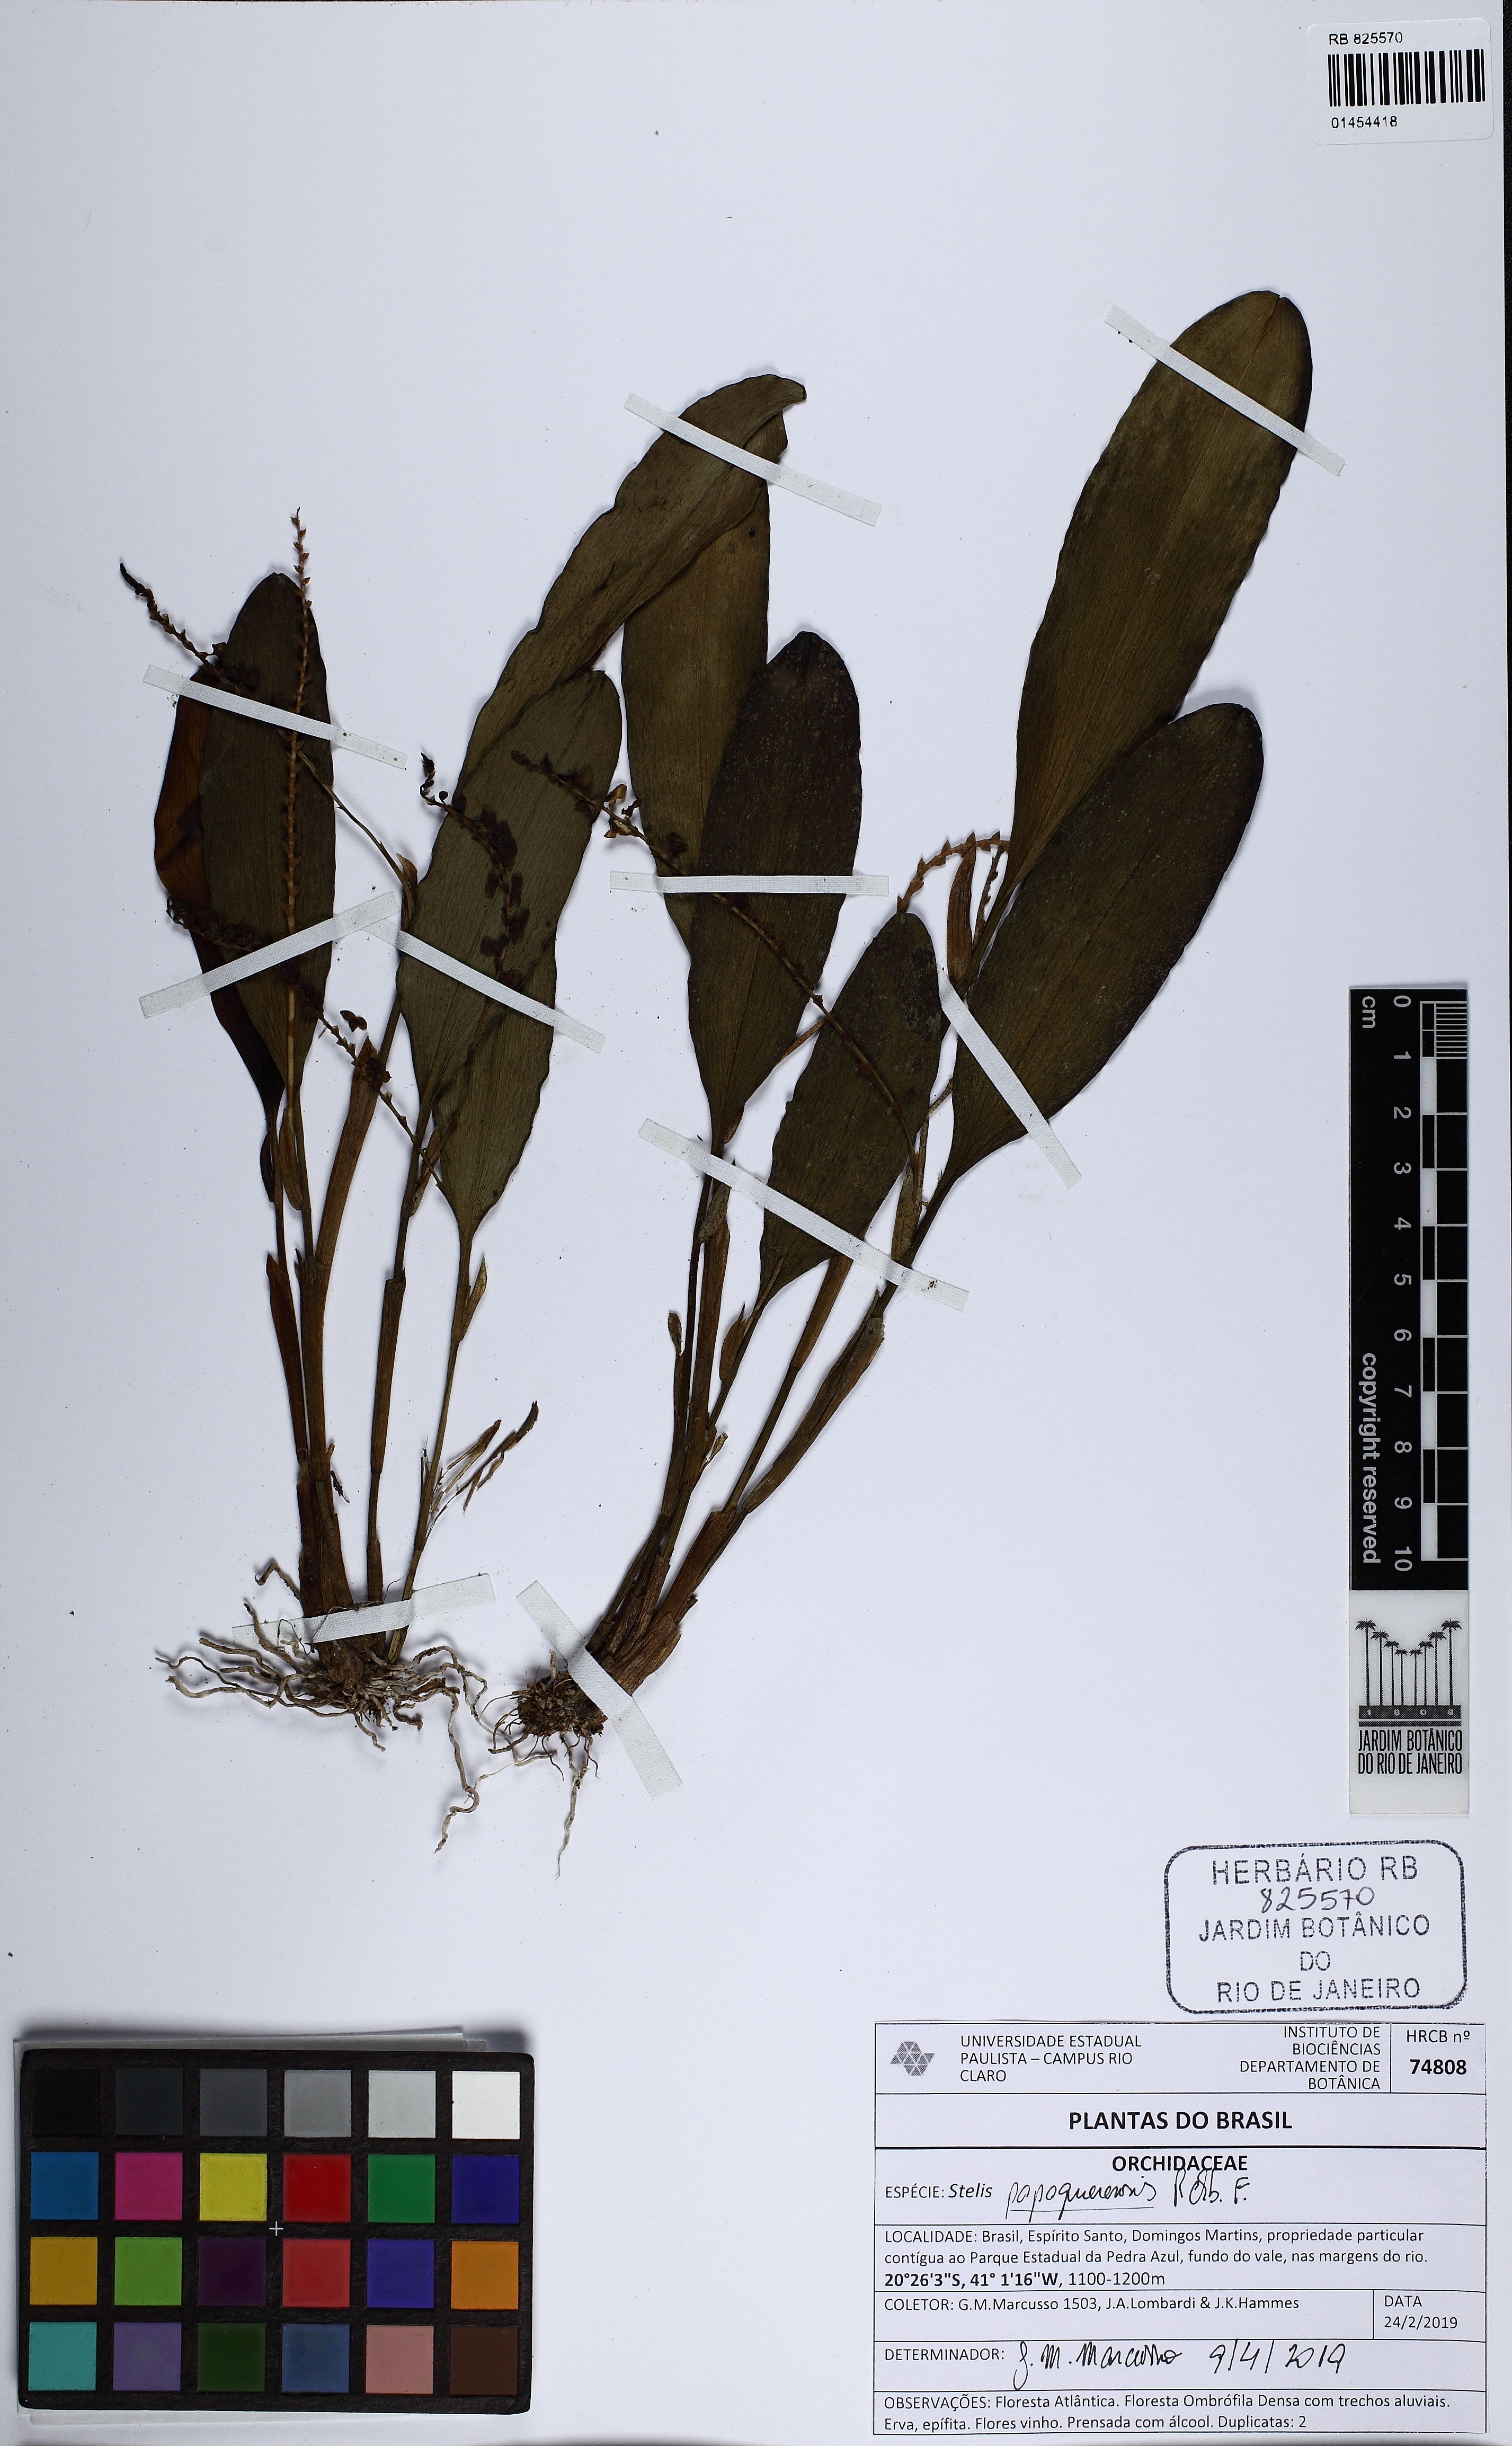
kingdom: Plantae
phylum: Tracheophyta
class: Liliopsida
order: Asparagales
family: Orchidaceae
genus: Stelis
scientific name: Stelis papaquerensis
